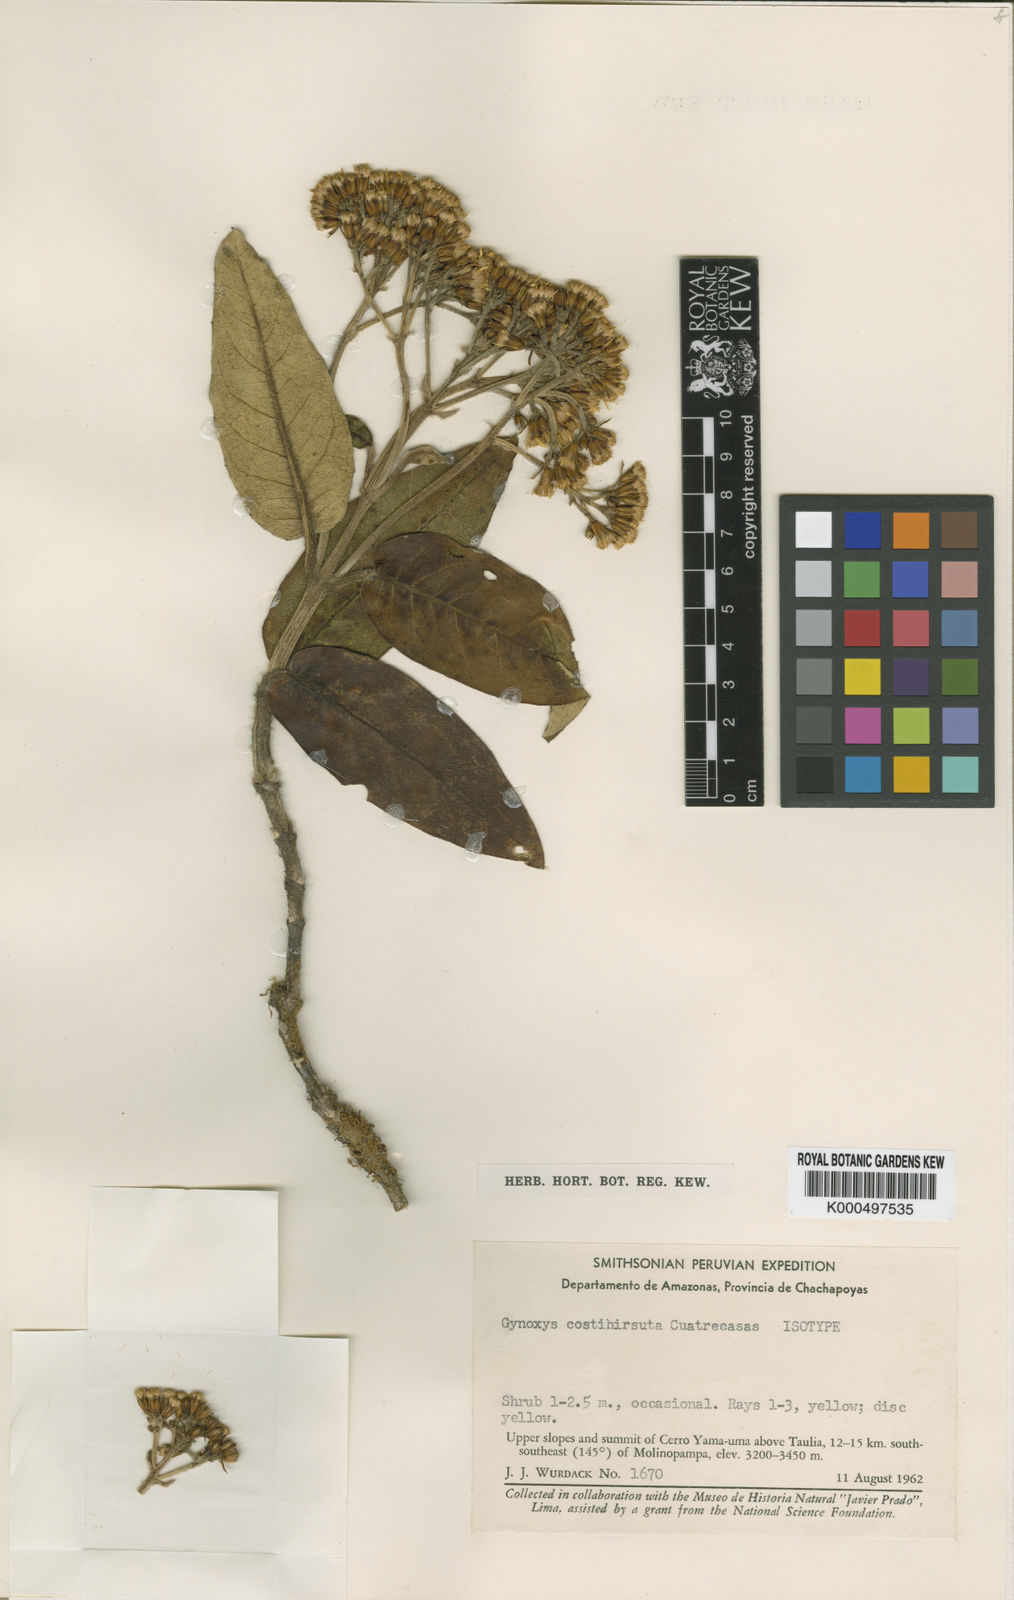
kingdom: Plantae
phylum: Tracheophyta
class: Magnoliopsida
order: Asterales
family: Asteraceae
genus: Gynoxys
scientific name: Gynoxys costihirsuta
